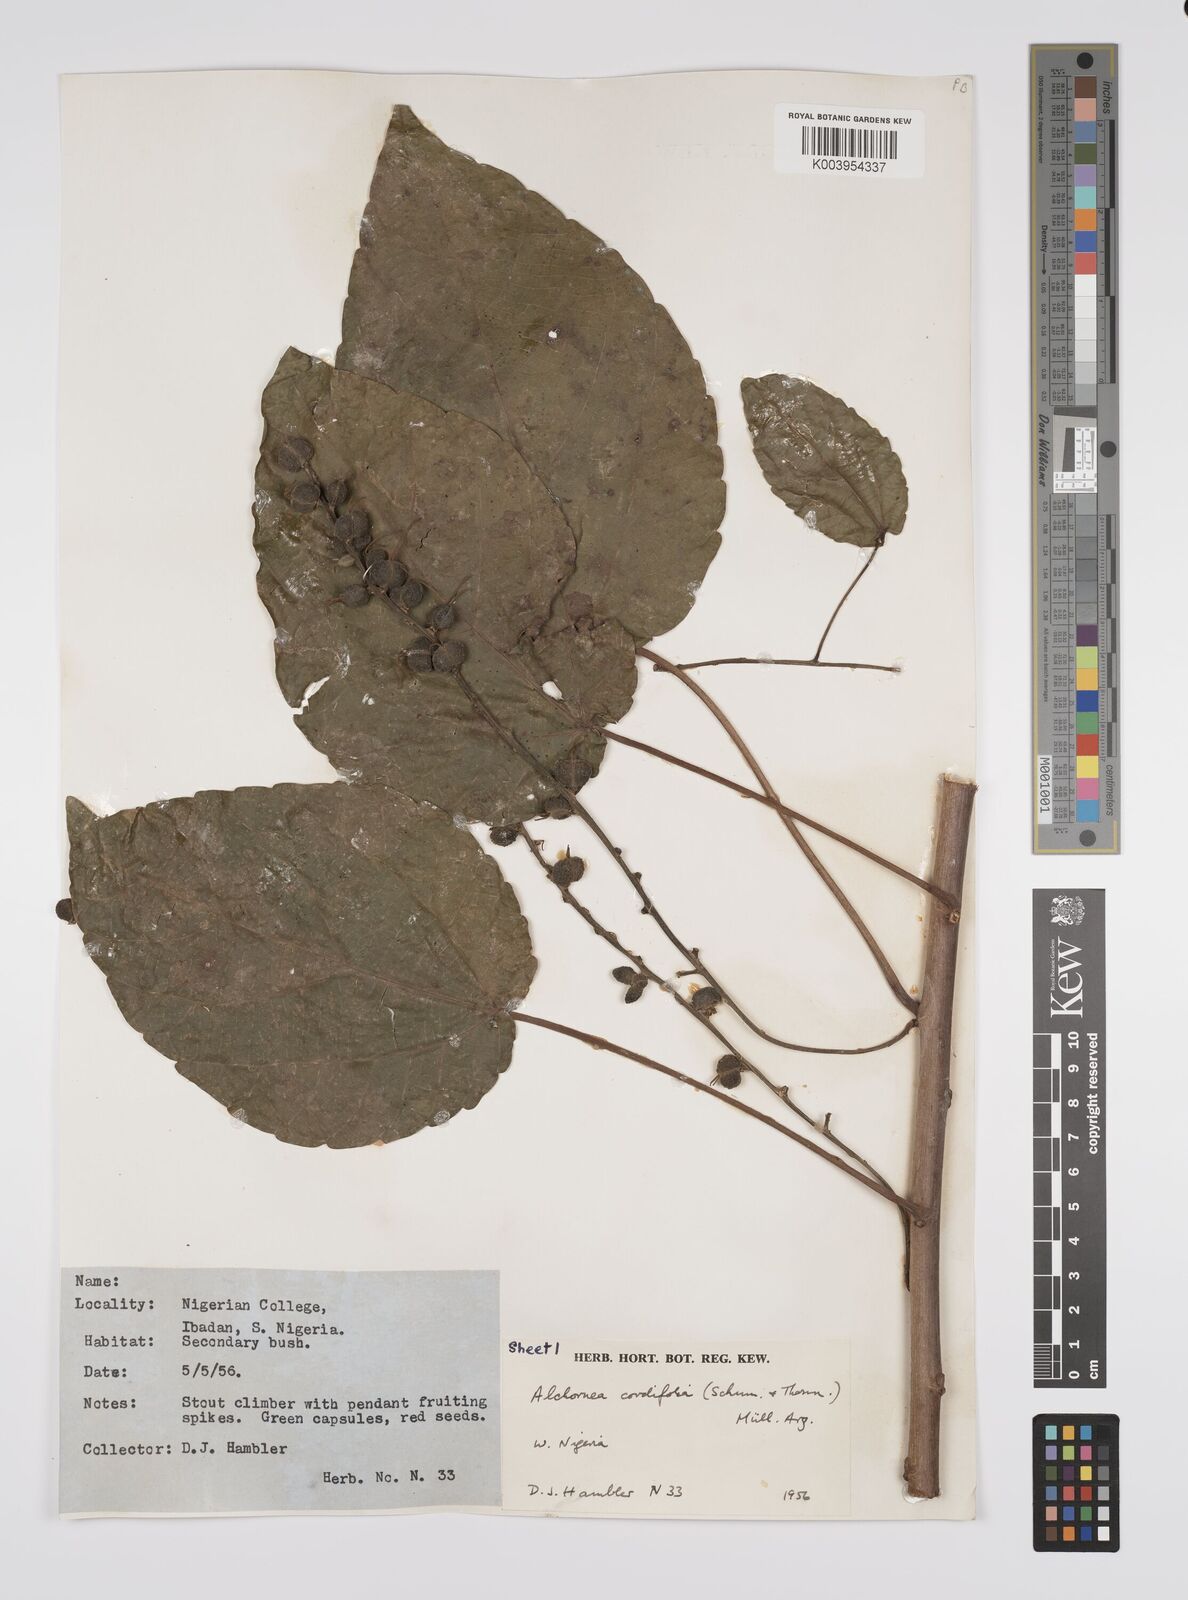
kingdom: Plantae
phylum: Tracheophyta
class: Magnoliopsida
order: Malpighiales
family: Euphorbiaceae
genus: Alchornea
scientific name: Alchornea cordifolia
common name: Christmasbush
